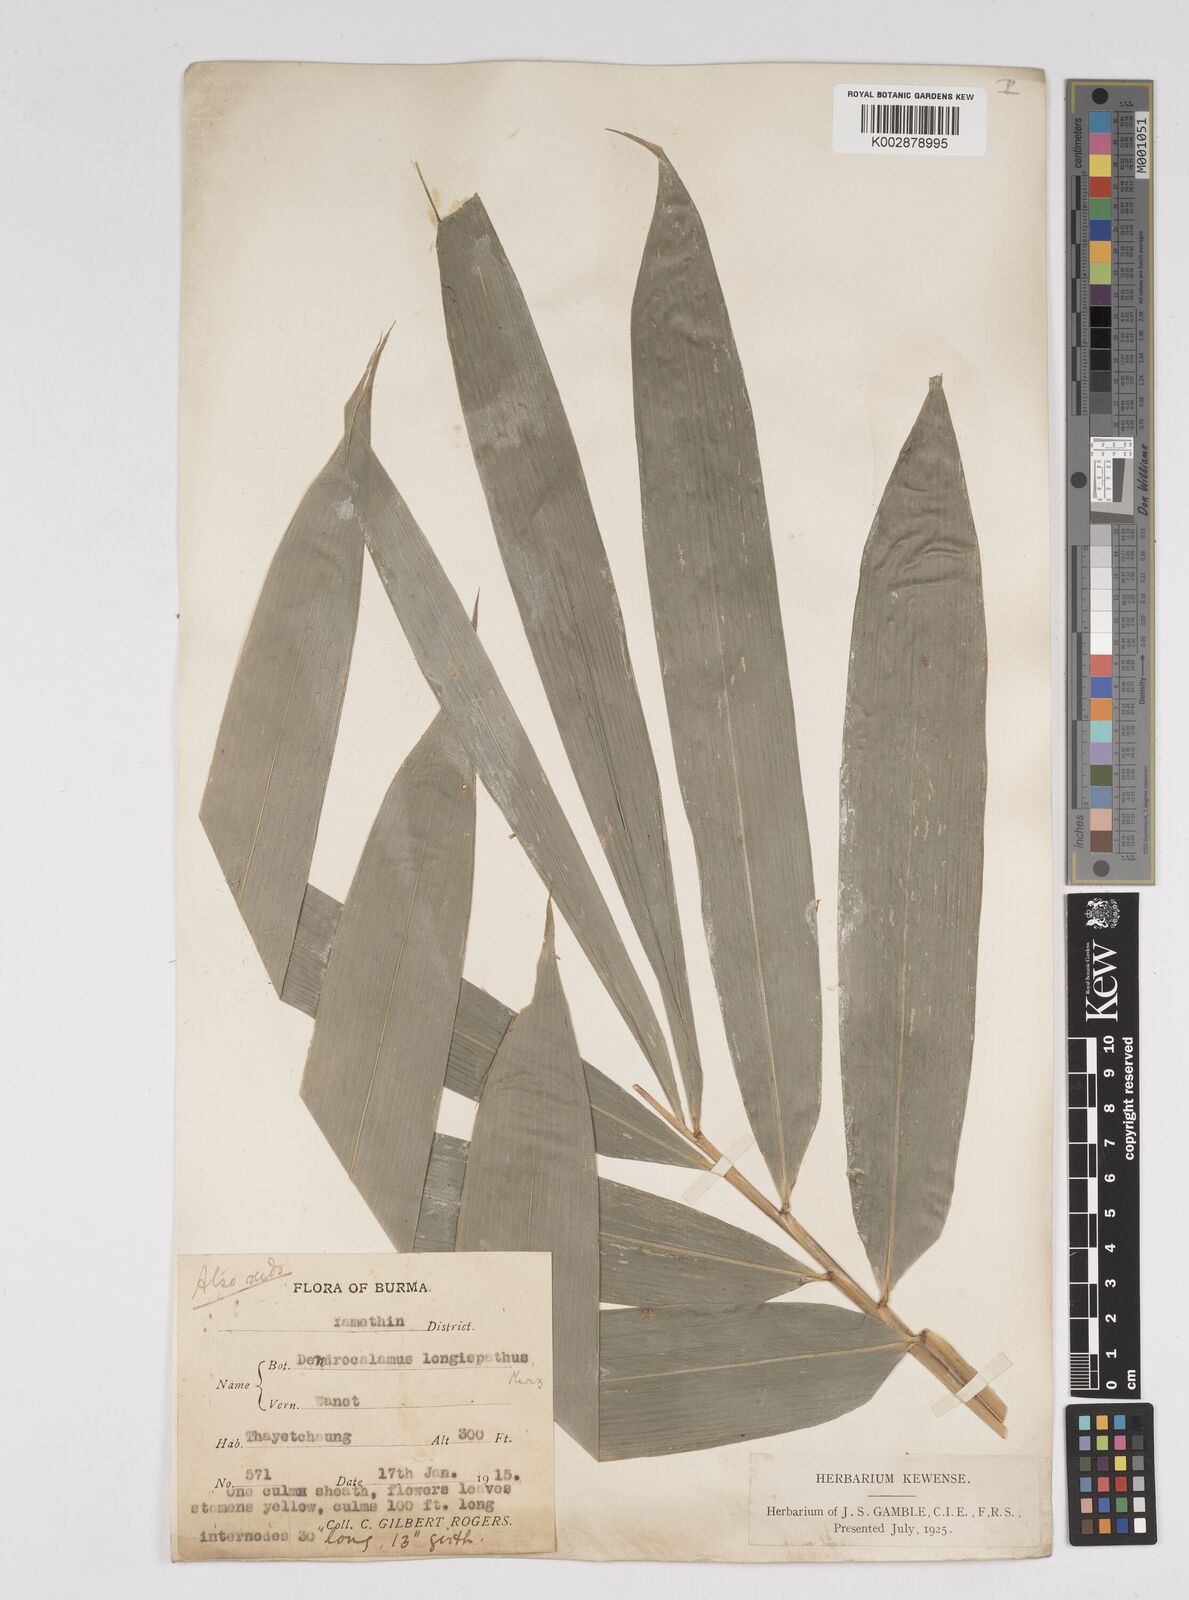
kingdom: Plantae
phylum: Tracheophyta
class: Liliopsida
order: Poales
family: Poaceae
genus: Dendrocalamus
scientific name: Dendrocalamus longispathus
